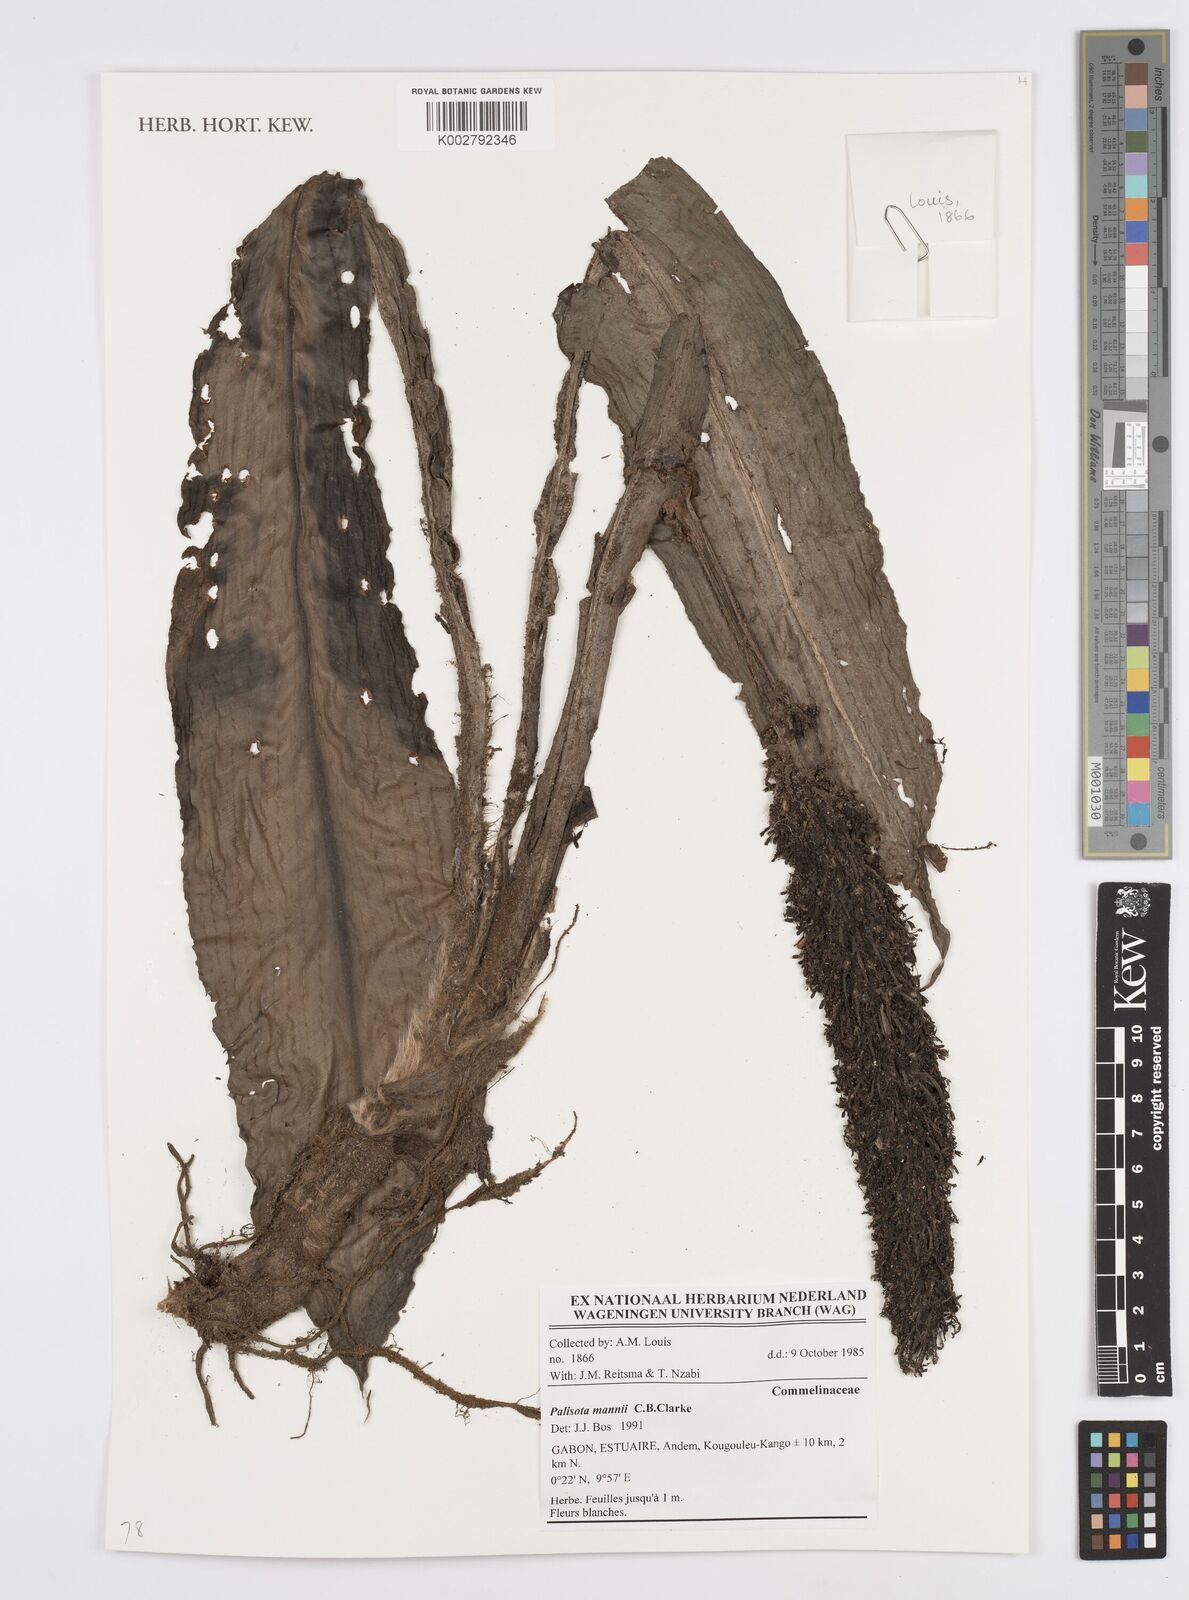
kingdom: Plantae
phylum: Tracheophyta
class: Liliopsida
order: Commelinales
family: Commelinaceae
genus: Palisota
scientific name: Palisota mannii
